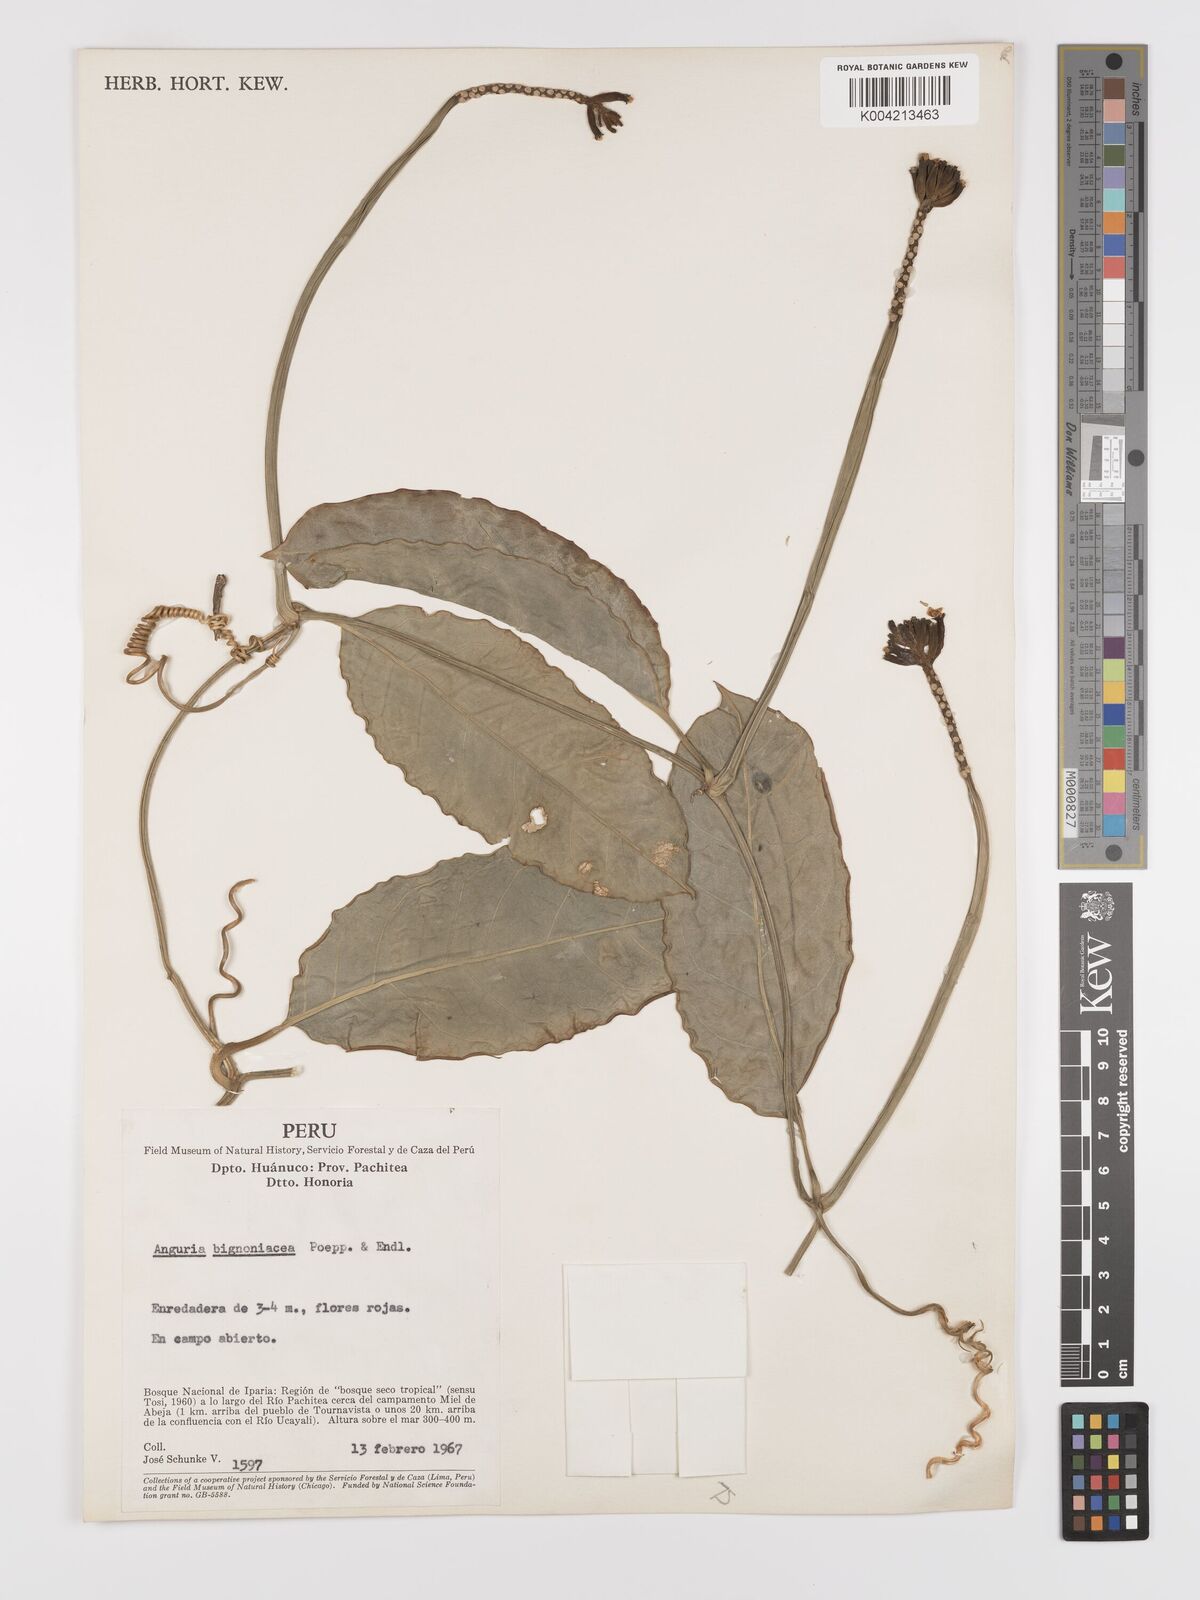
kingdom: Plantae
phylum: Tracheophyta
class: Magnoliopsida
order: Cucurbitales
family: Cucurbitaceae
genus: Psiguria
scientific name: Psiguria triphylla
